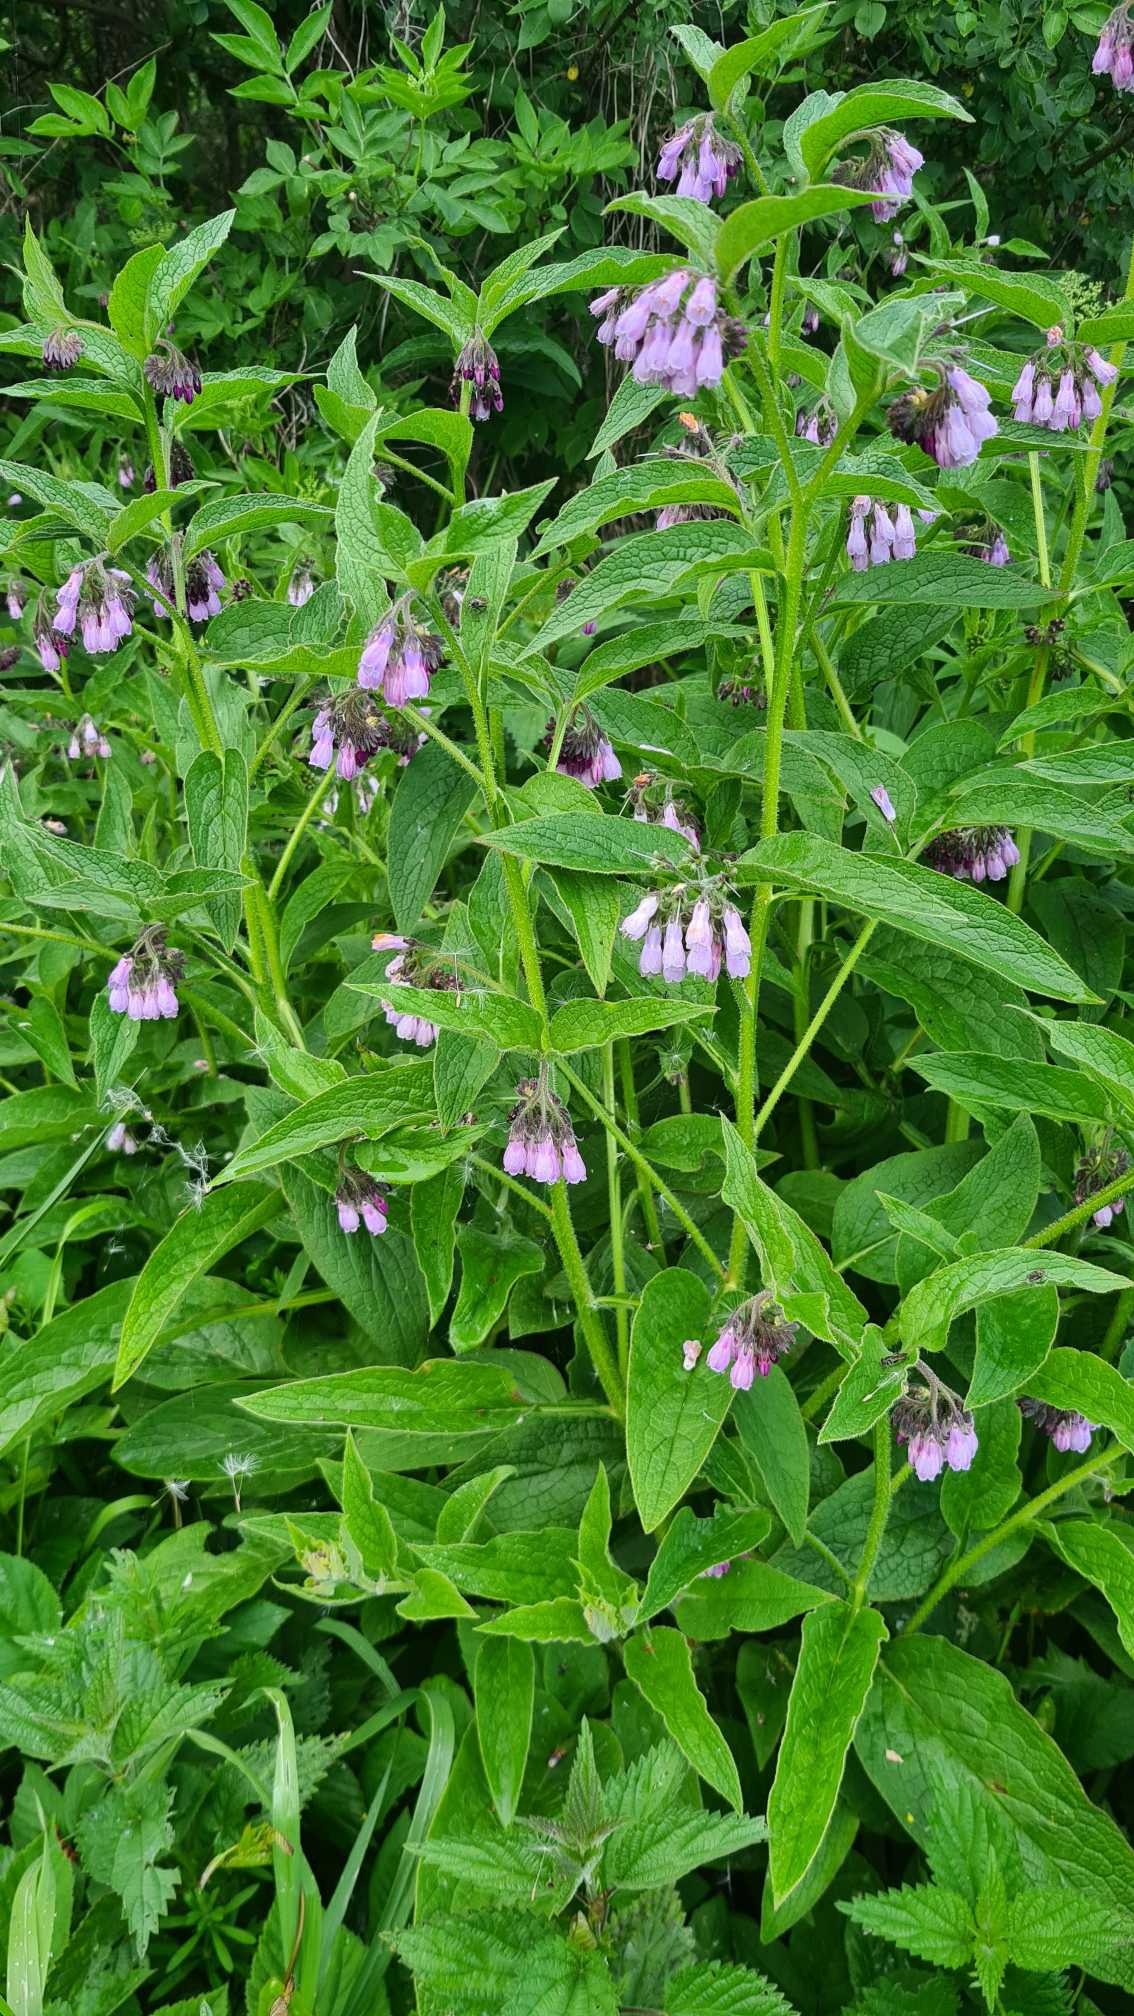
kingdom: Plantae
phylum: Tracheophyta
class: Magnoliopsida
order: Boraginales
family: Boraginaceae
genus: Symphytum
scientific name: Symphytum uplandicum
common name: Foder-kulsukker
